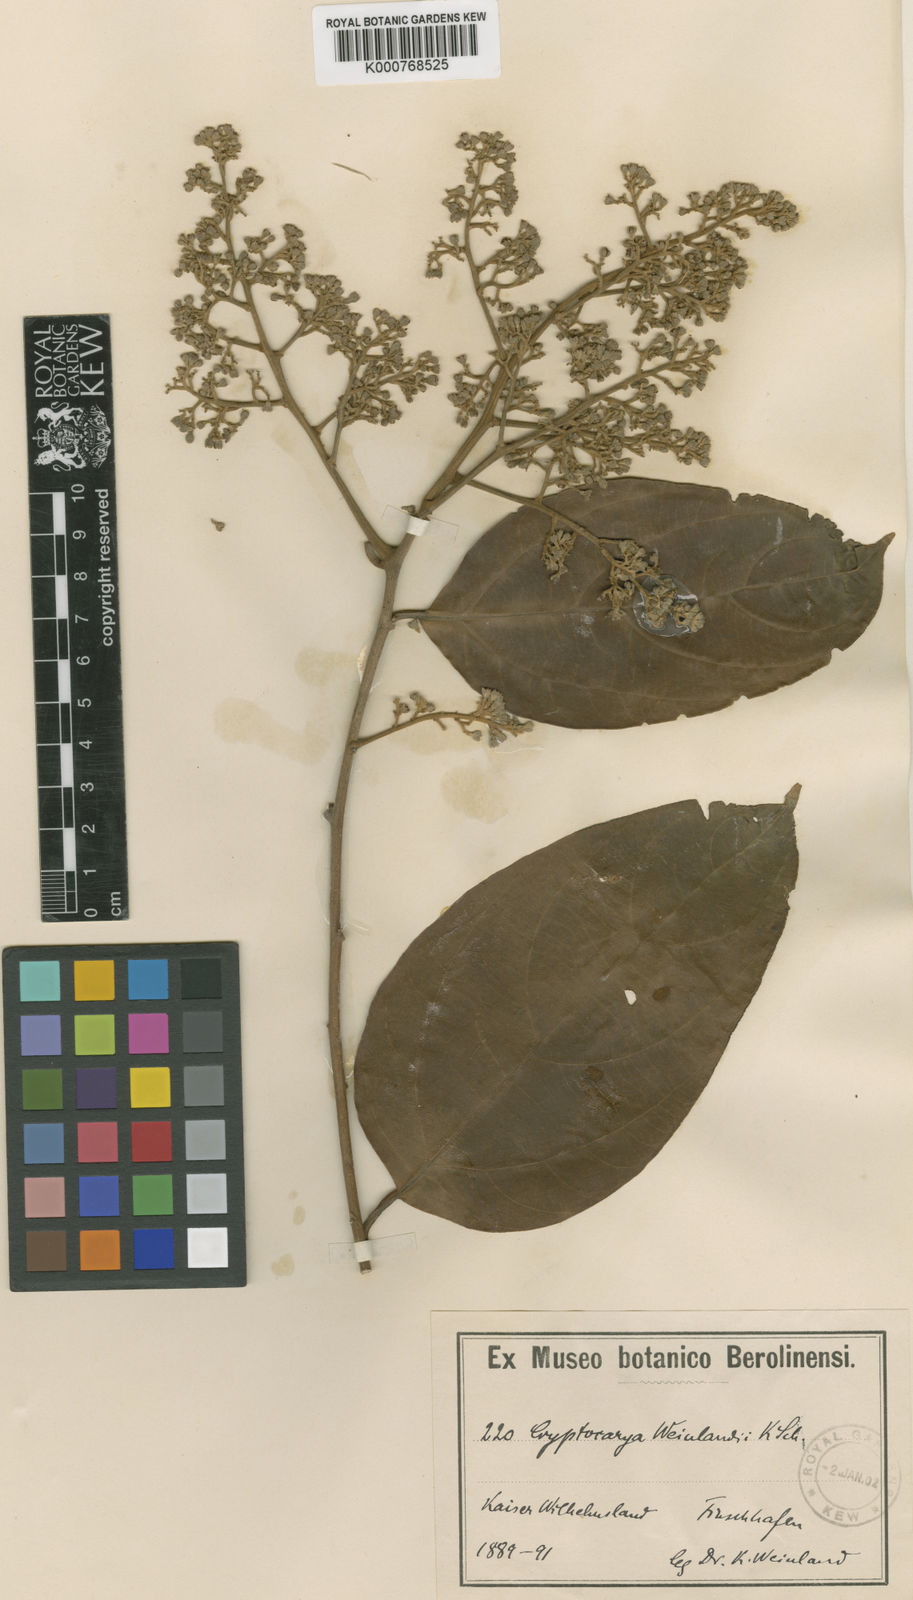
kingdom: Plantae
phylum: Tracheophyta
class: Magnoliopsida
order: Laurales
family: Lauraceae
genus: Cryptocarya
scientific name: Cryptocarya weinlandii
